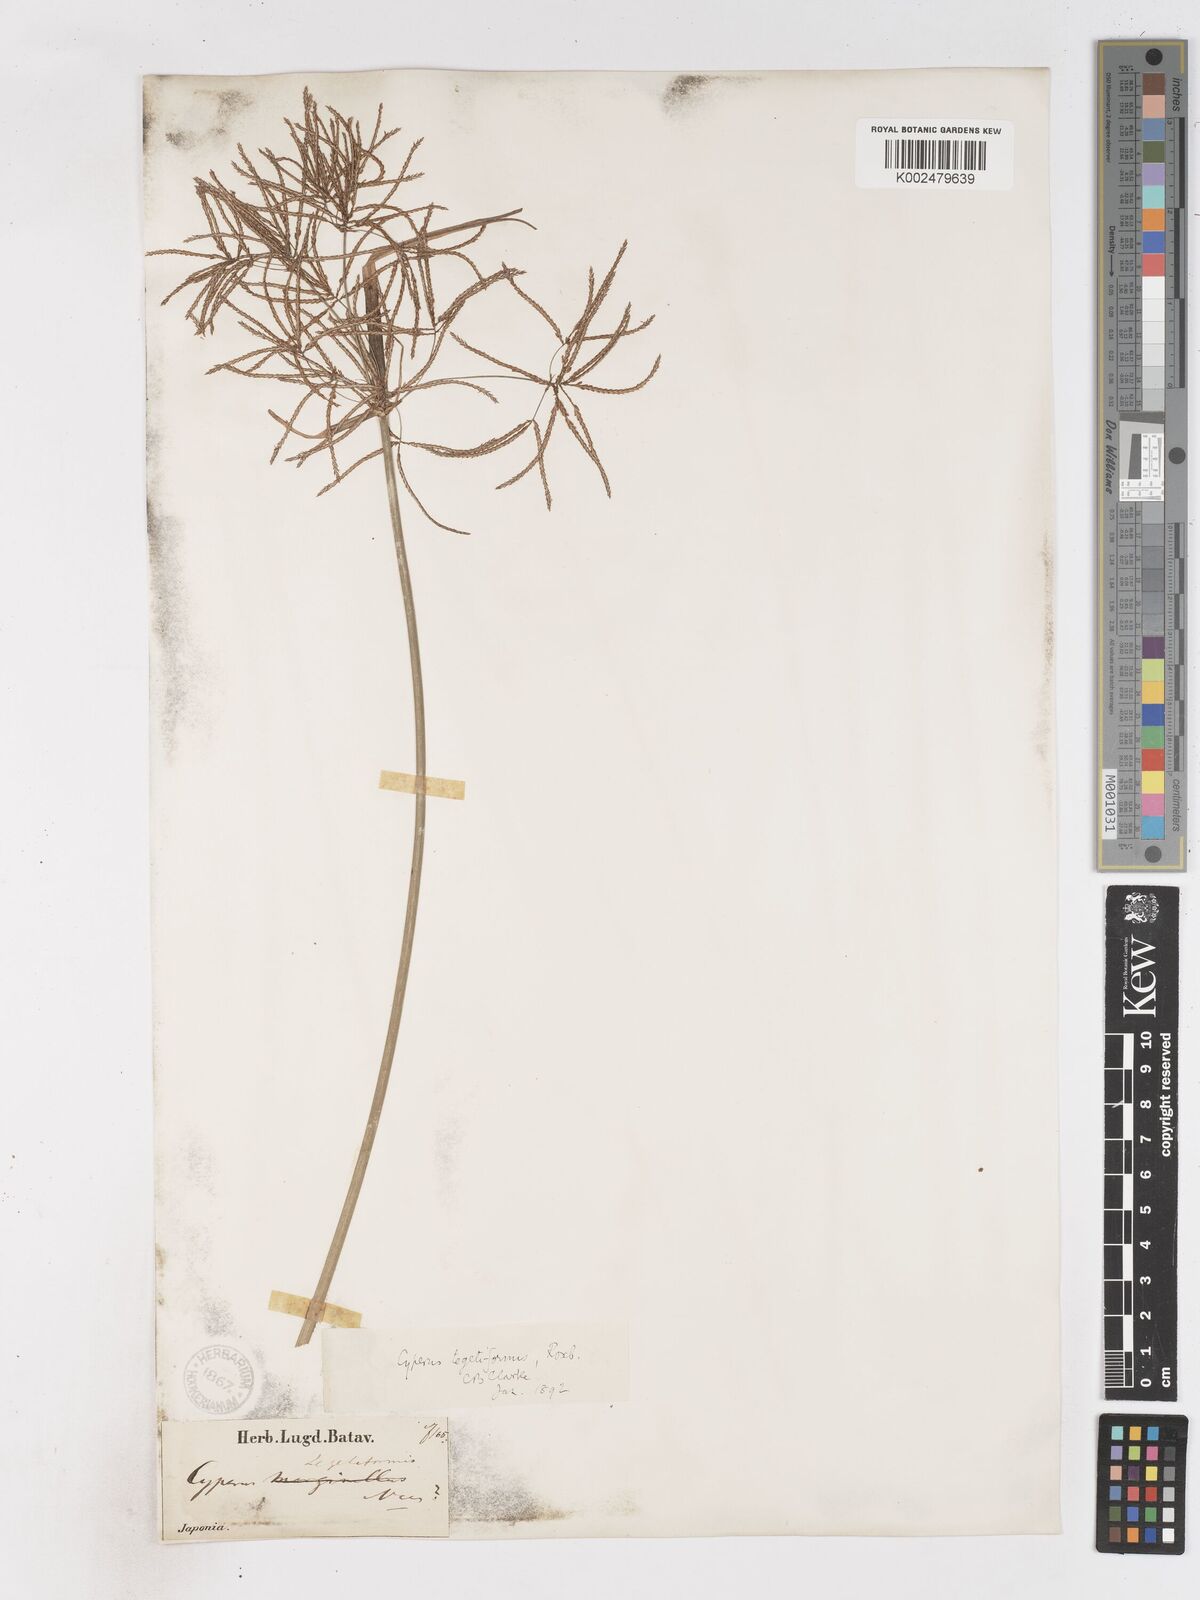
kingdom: Plantae
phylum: Tracheophyta
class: Liliopsida
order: Poales
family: Cyperaceae
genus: Cyperus
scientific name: Cyperus corymbosus
